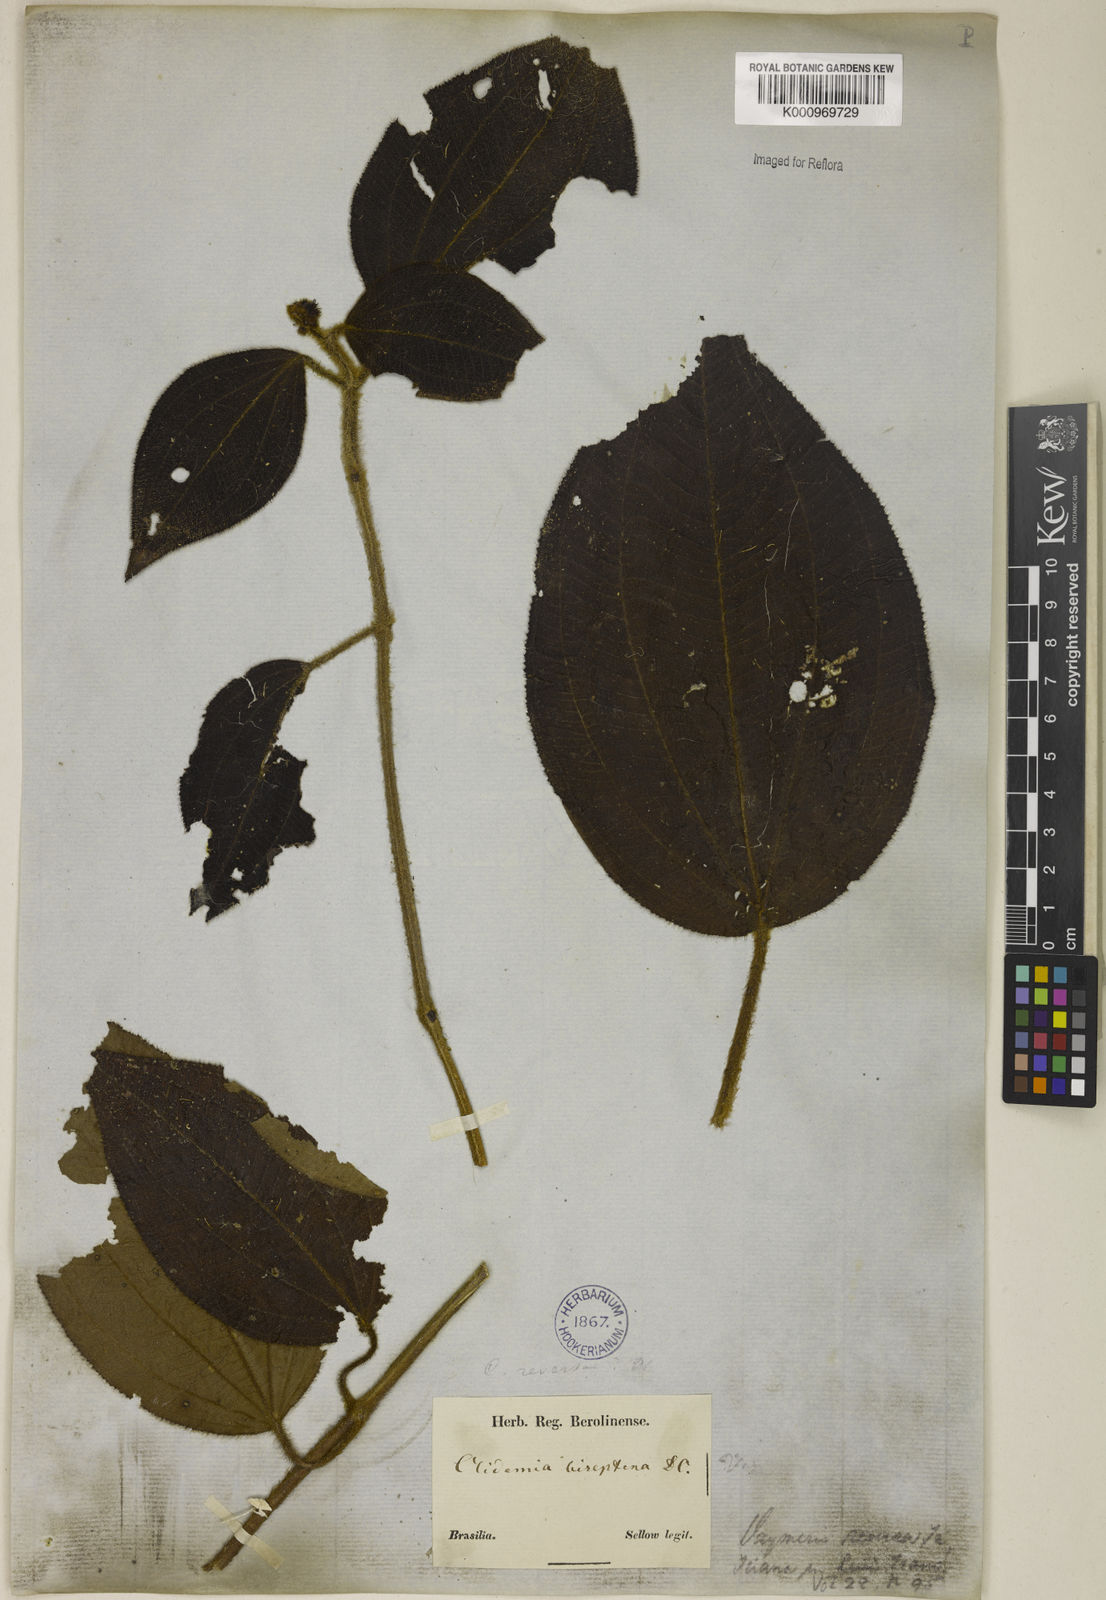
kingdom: Plantae
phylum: Tracheophyta
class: Magnoliopsida
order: Myrtales
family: Melastomataceae
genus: Miconia
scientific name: Miconia reversa
